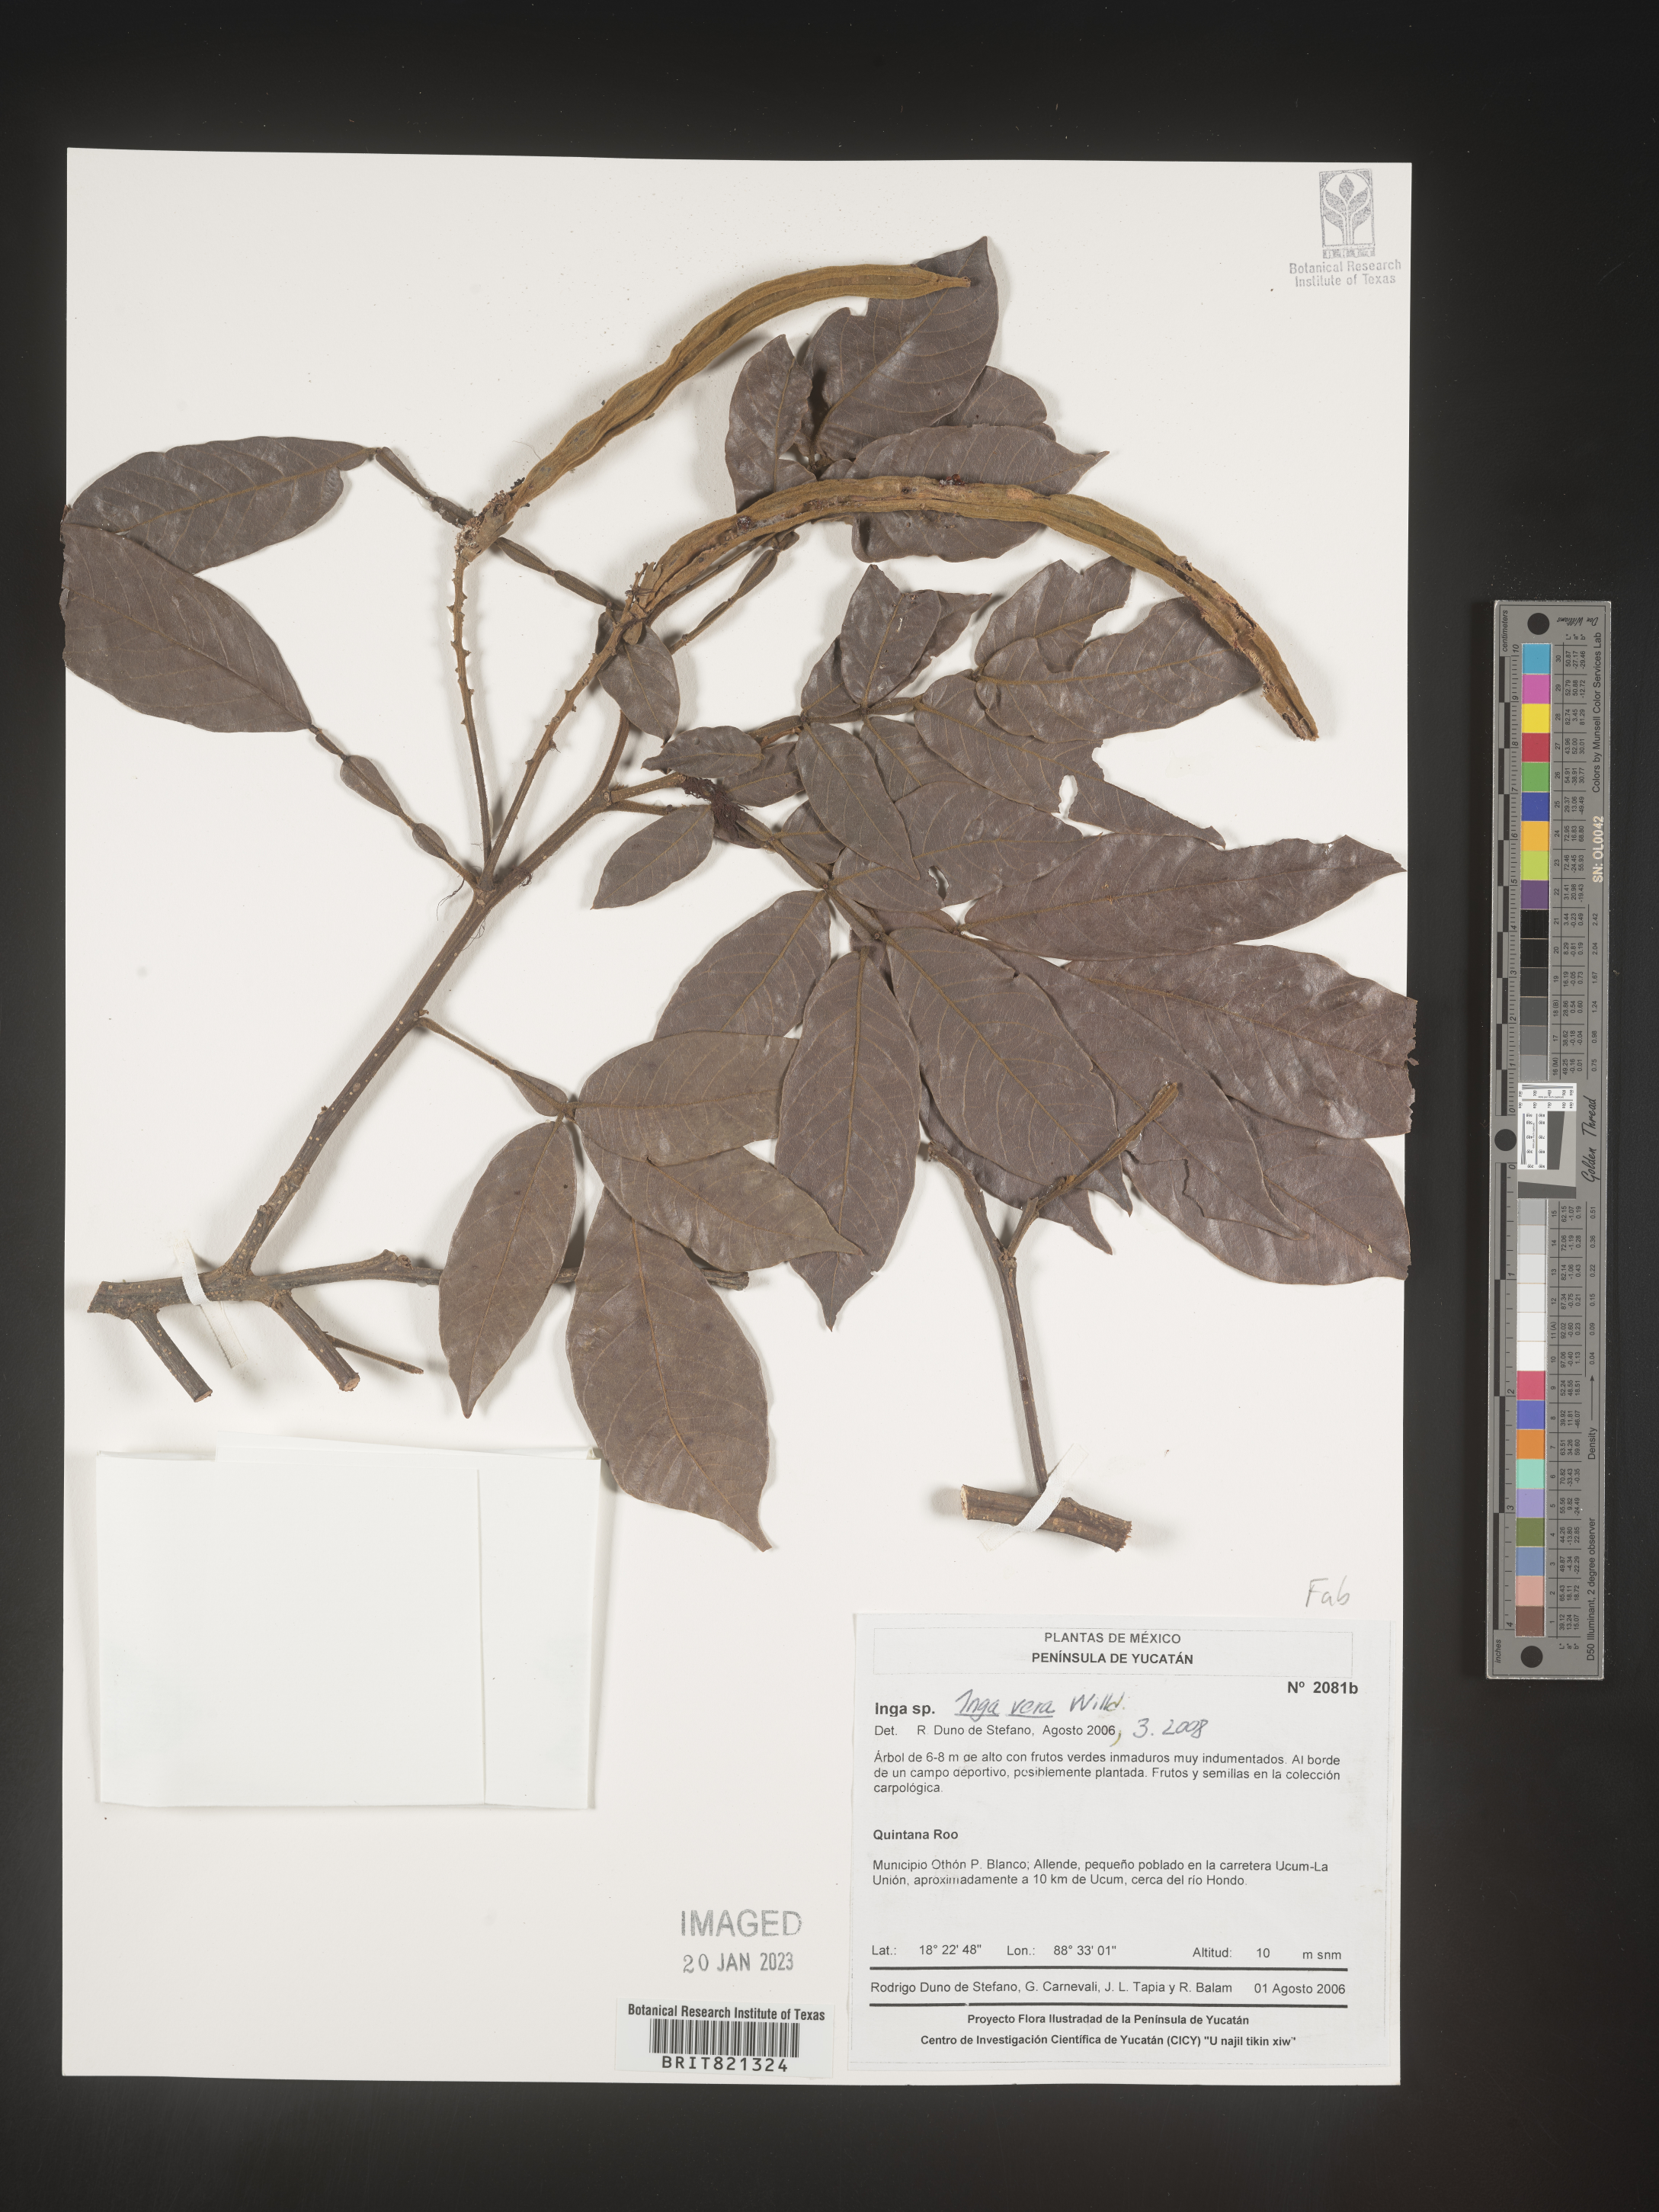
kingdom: Plantae
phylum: Tracheophyta
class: Magnoliopsida
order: Fabales
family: Fabaceae
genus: Inga
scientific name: Inga
